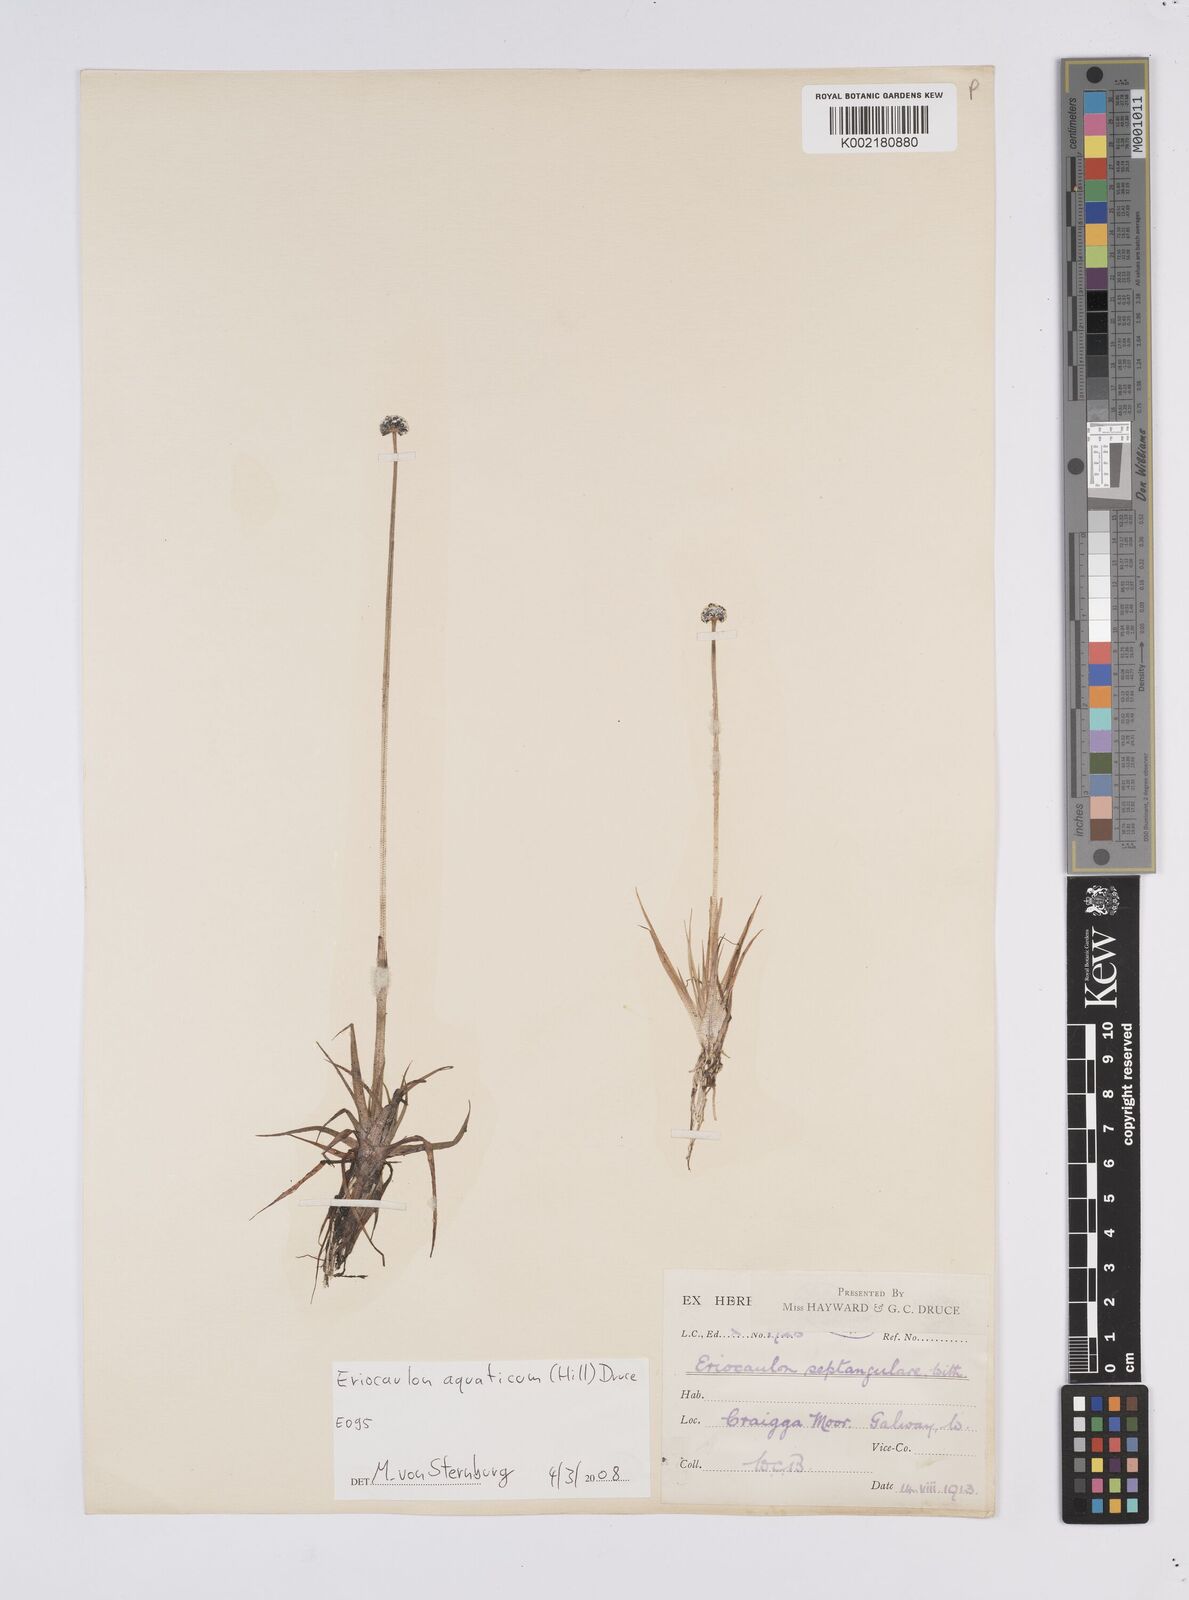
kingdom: Plantae
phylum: Tracheophyta
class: Liliopsida
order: Poales
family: Eriocaulaceae
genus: Eriocaulon
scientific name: Eriocaulon aquaticum
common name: Pipewort
